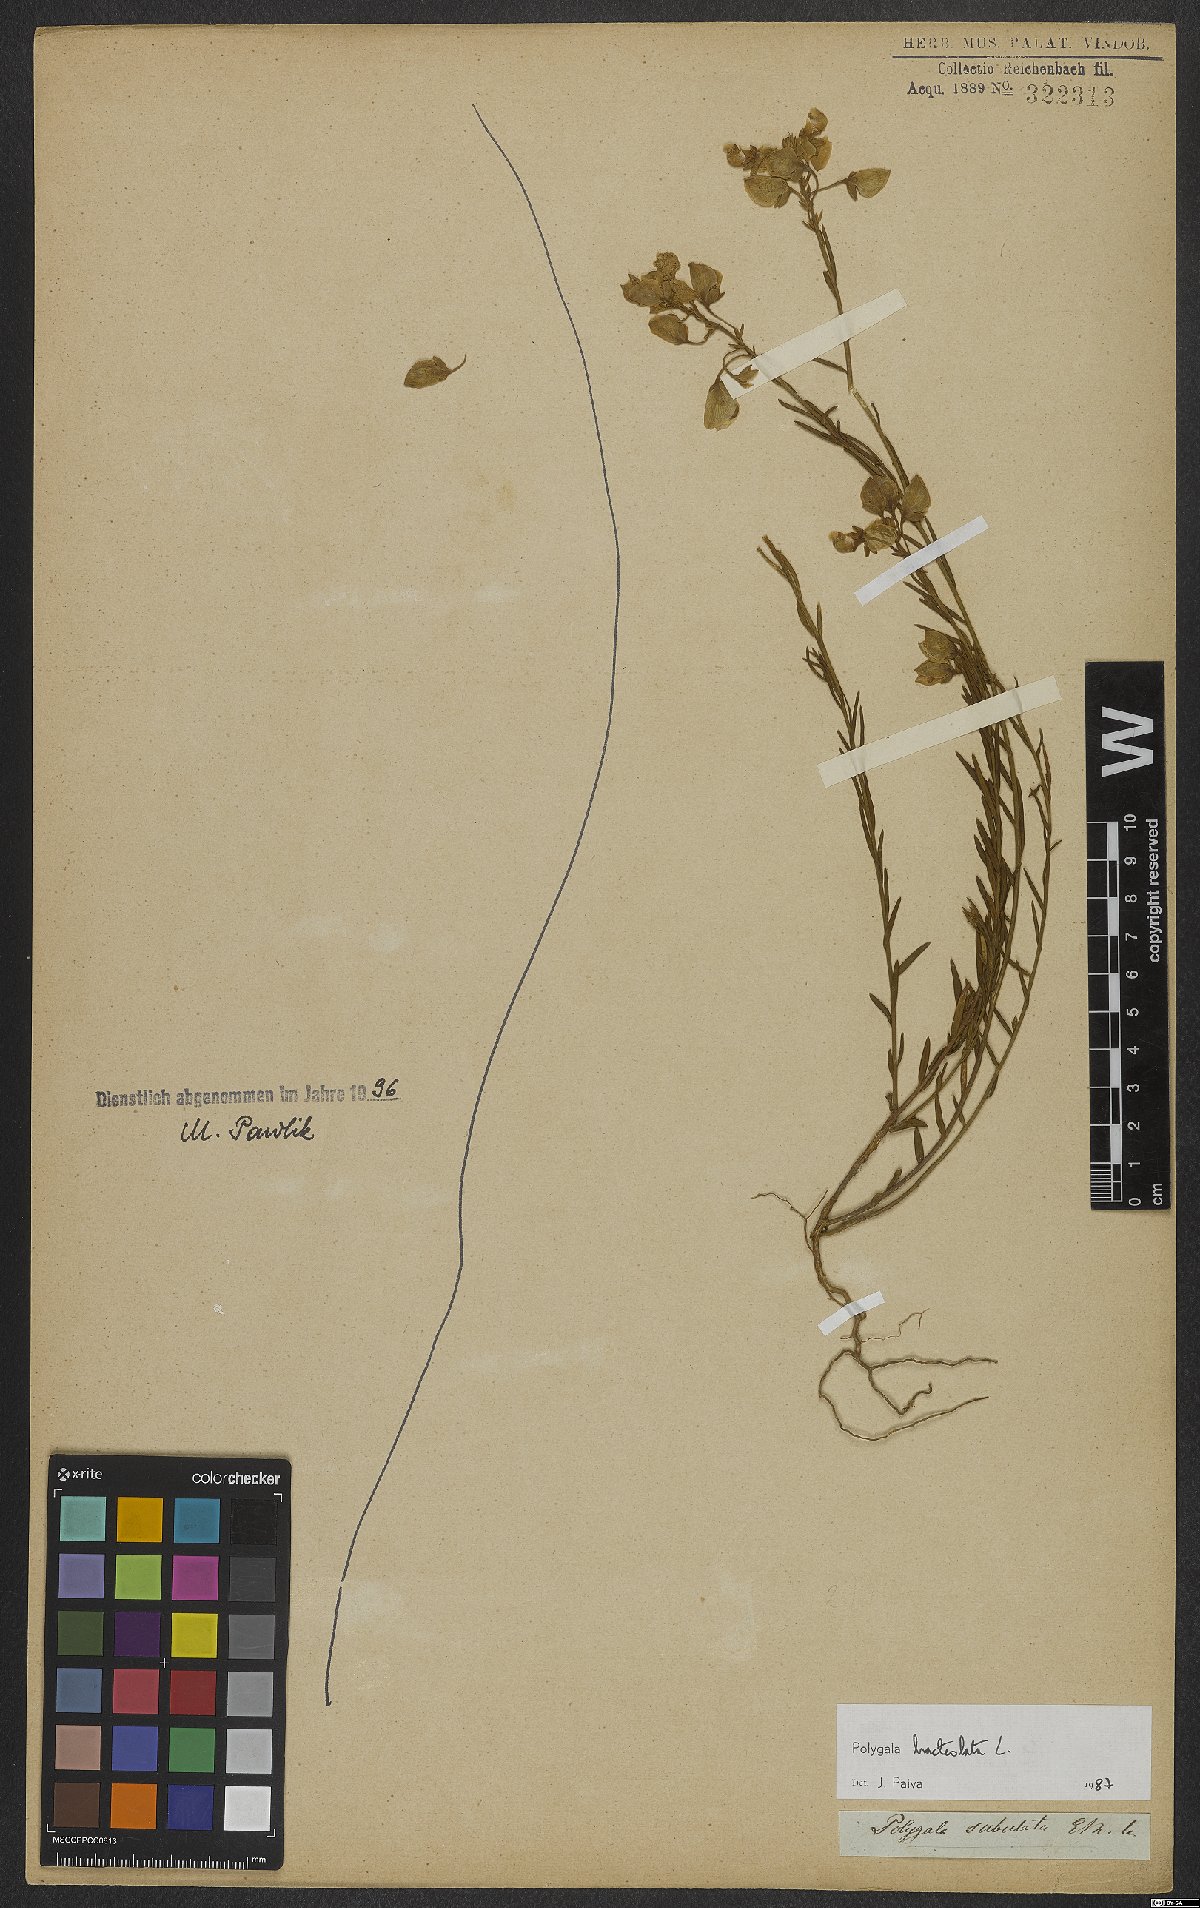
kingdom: Plantae
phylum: Tracheophyta
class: Magnoliopsida
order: Fabales
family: Polygalaceae
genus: Polygala
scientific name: Polygala bracteata
